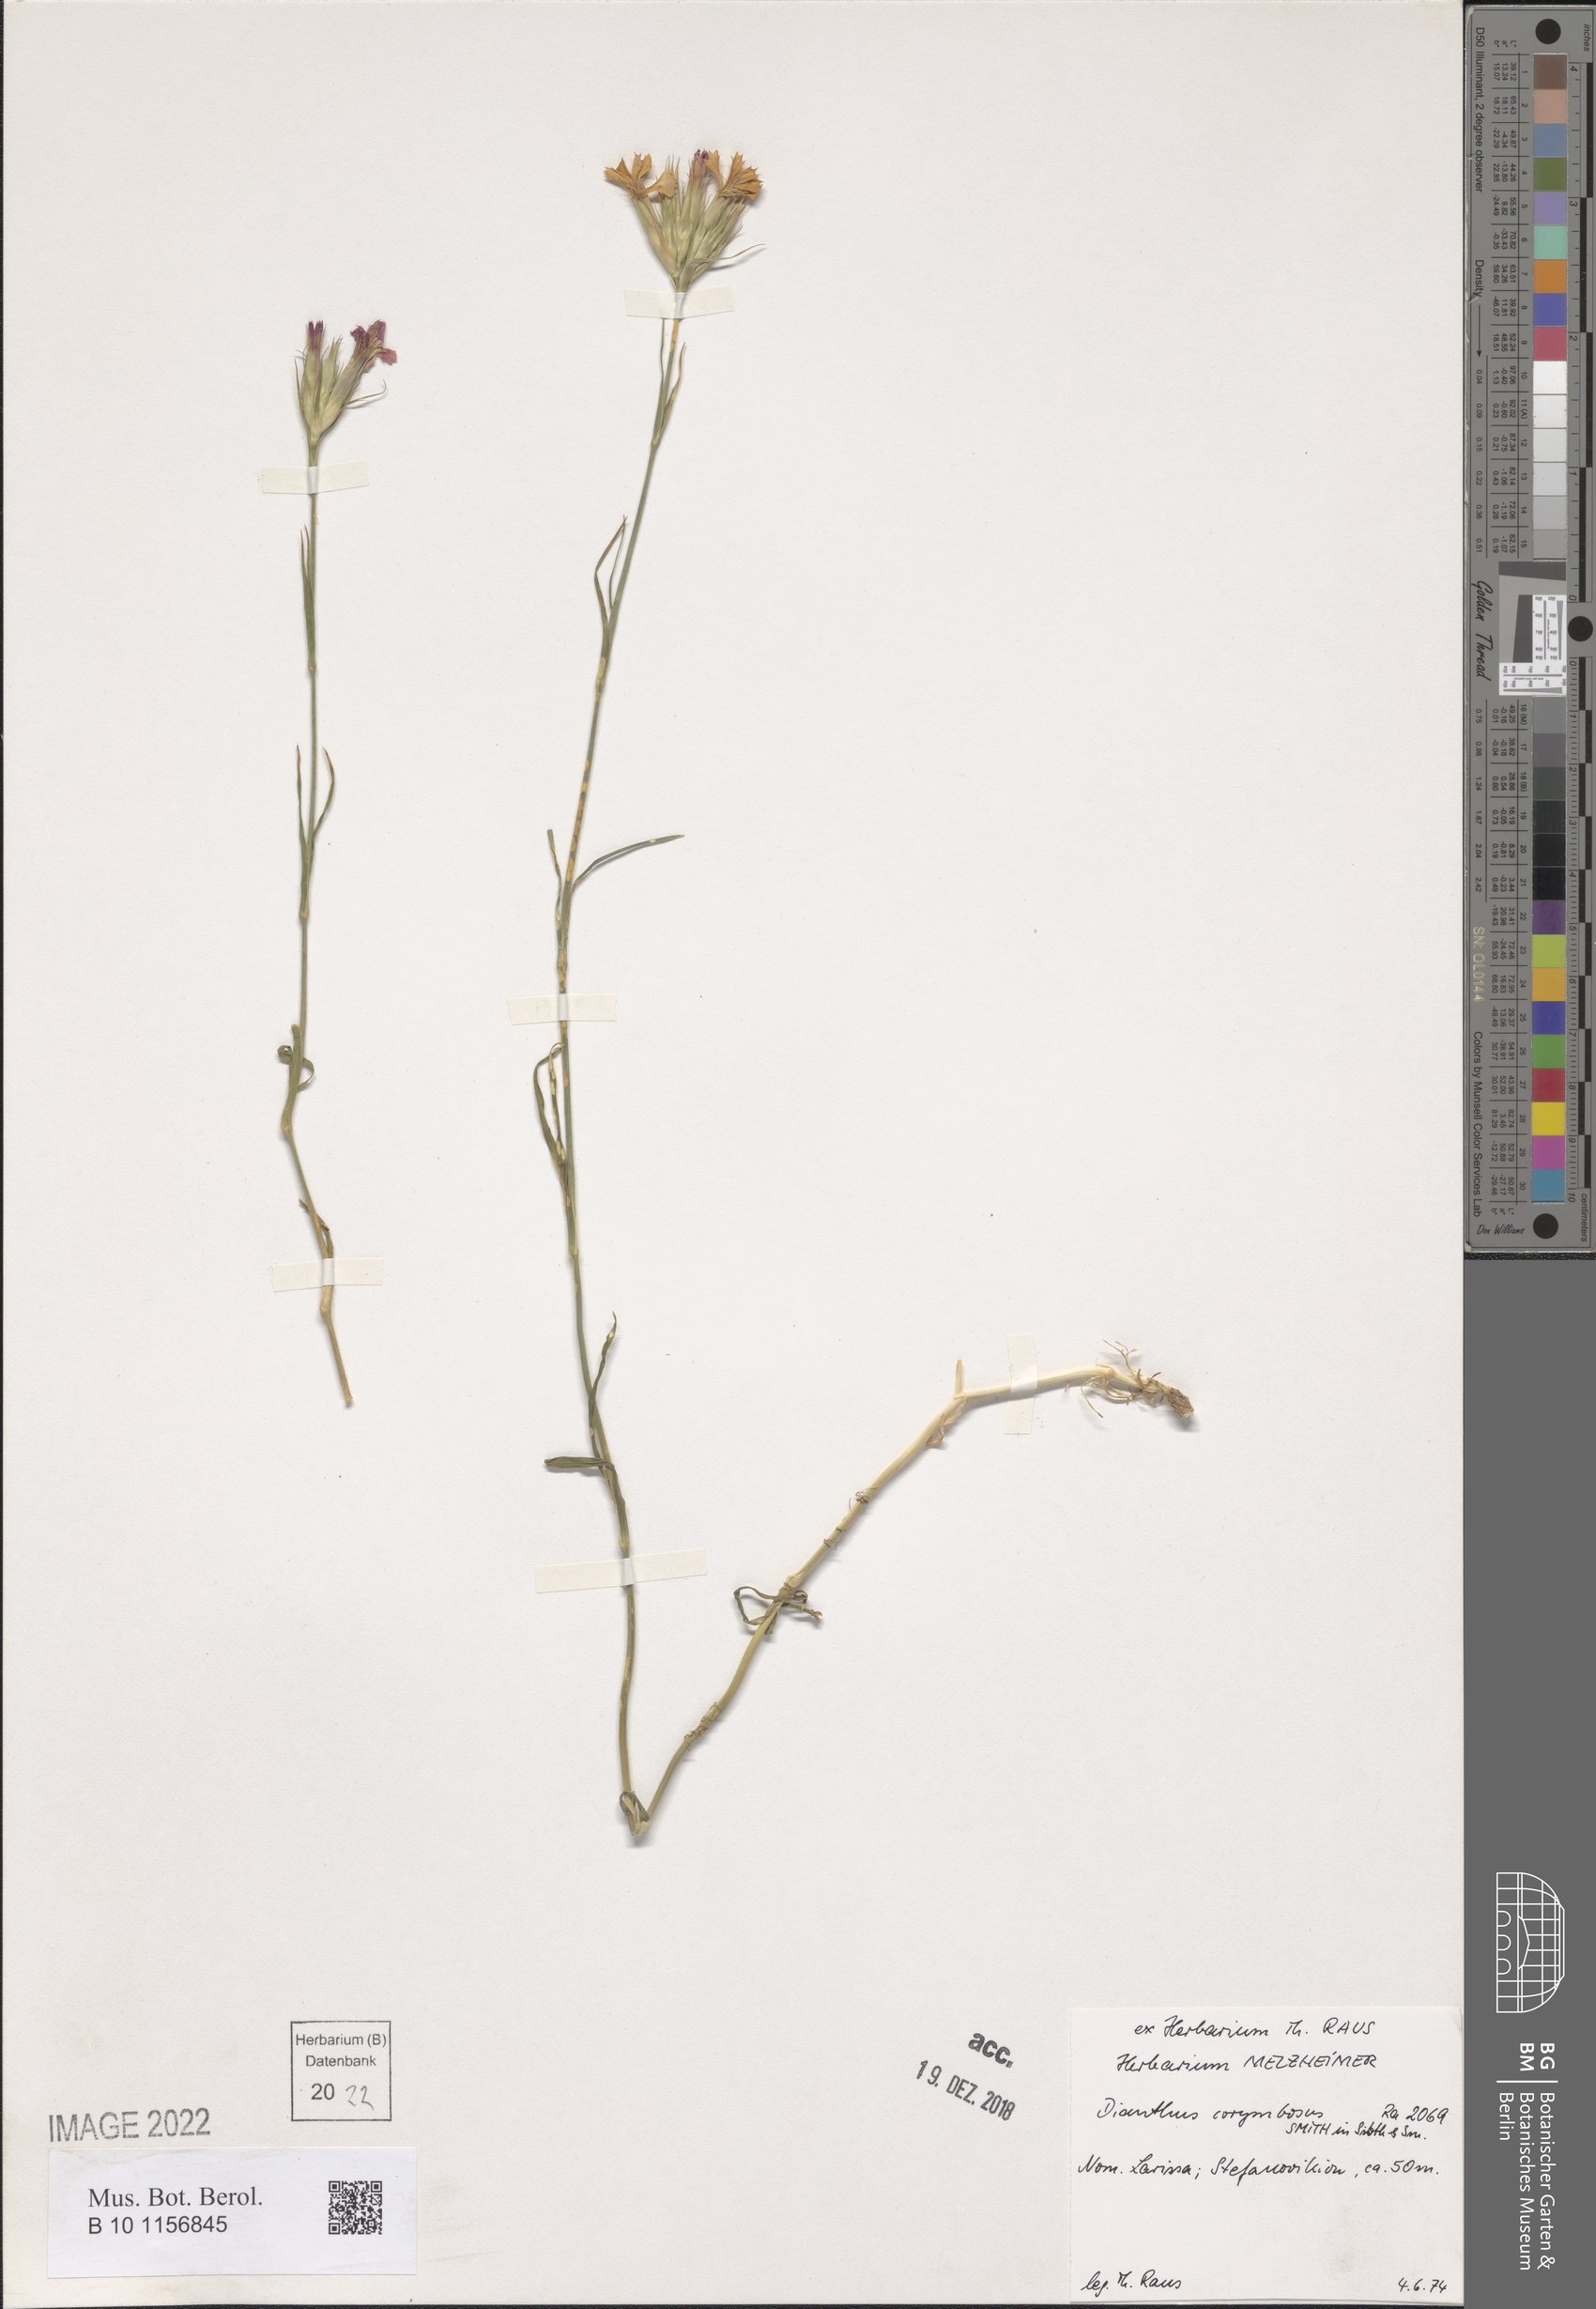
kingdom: Plantae
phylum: Tracheophyta
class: Magnoliopsida
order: Caryophyllales
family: Caryophyllaceae
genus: Dianthus
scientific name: Dianthus corymbosus
